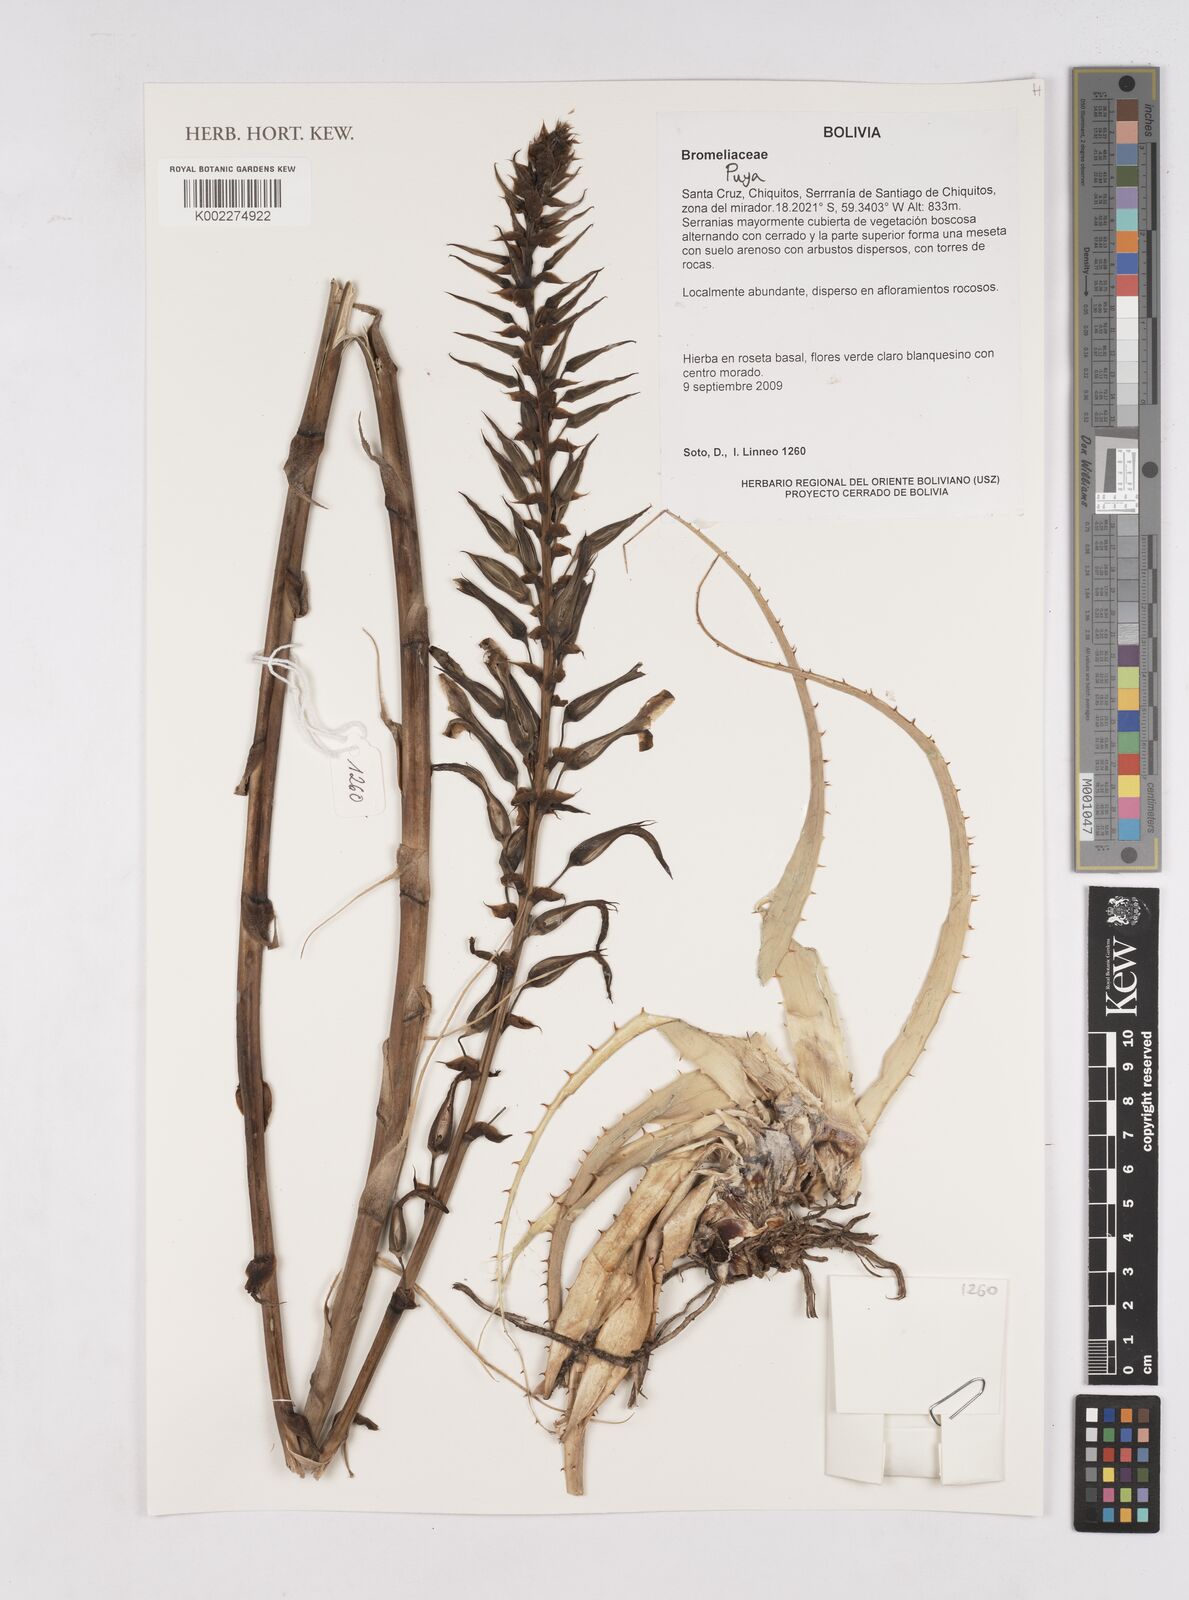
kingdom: Plantae
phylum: Tracheophyta
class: Liliopsida
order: Poales
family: Bromeliaceae
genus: Puya
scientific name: Puya
